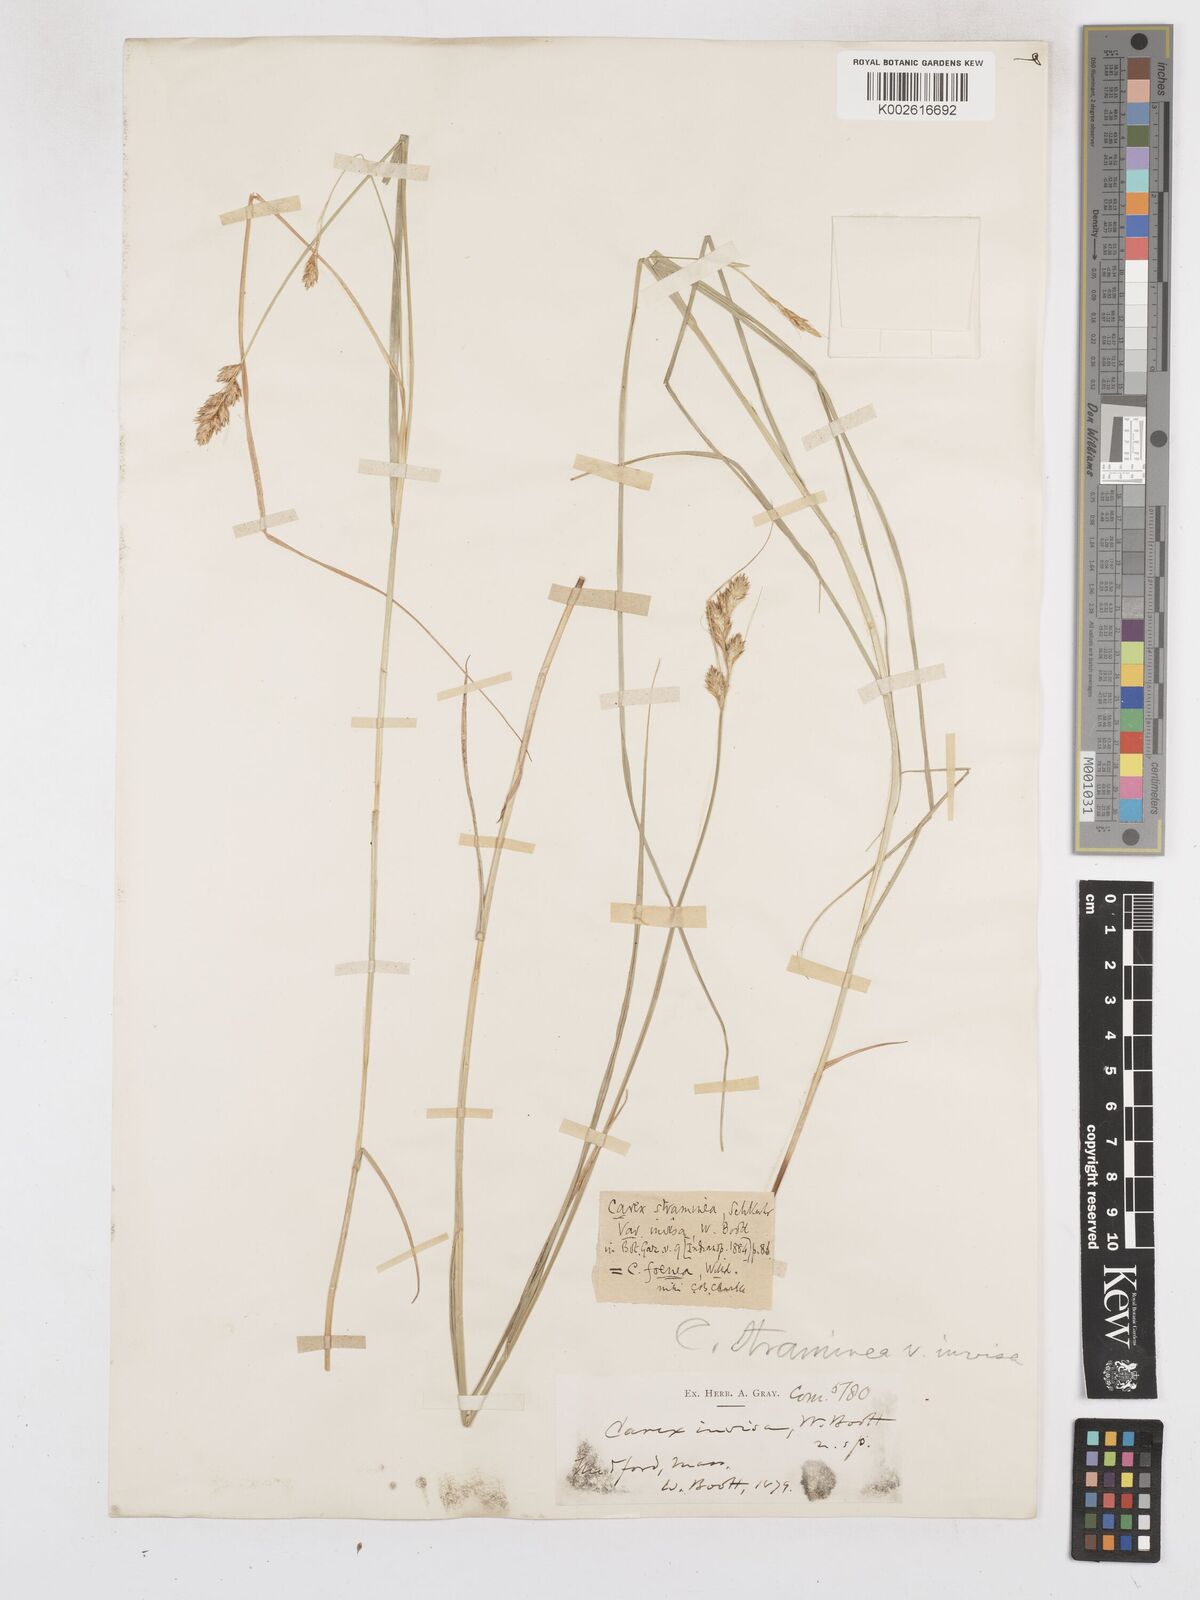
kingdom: Plantae
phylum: Tracheophyta
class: Liliopsida
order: Poales
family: Cyperaceae
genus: Carex
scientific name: Carex argyrantha
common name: Silvery-flowered sedge
